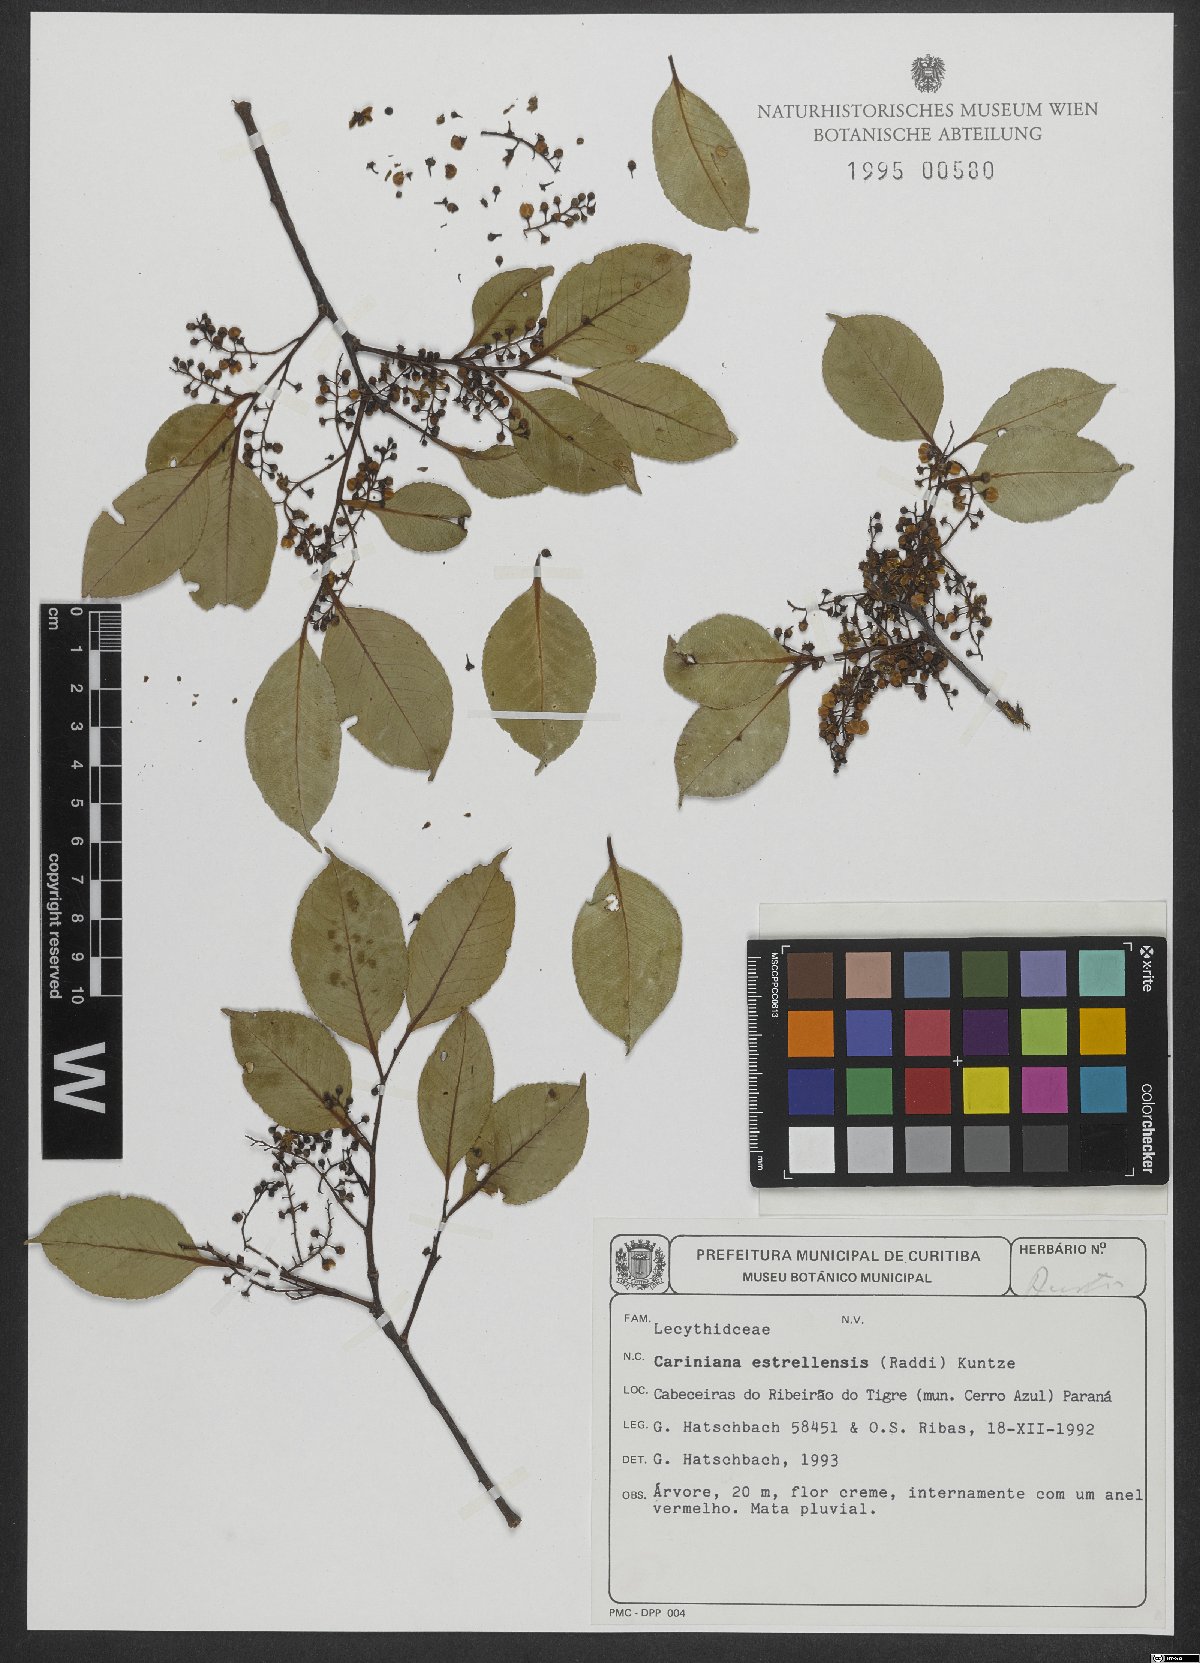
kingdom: Plantae
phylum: Tracheophyta
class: Magnoliopsida
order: Ericales
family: Lecythidaceae
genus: Cariniana
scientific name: Cariniana estrellensis
